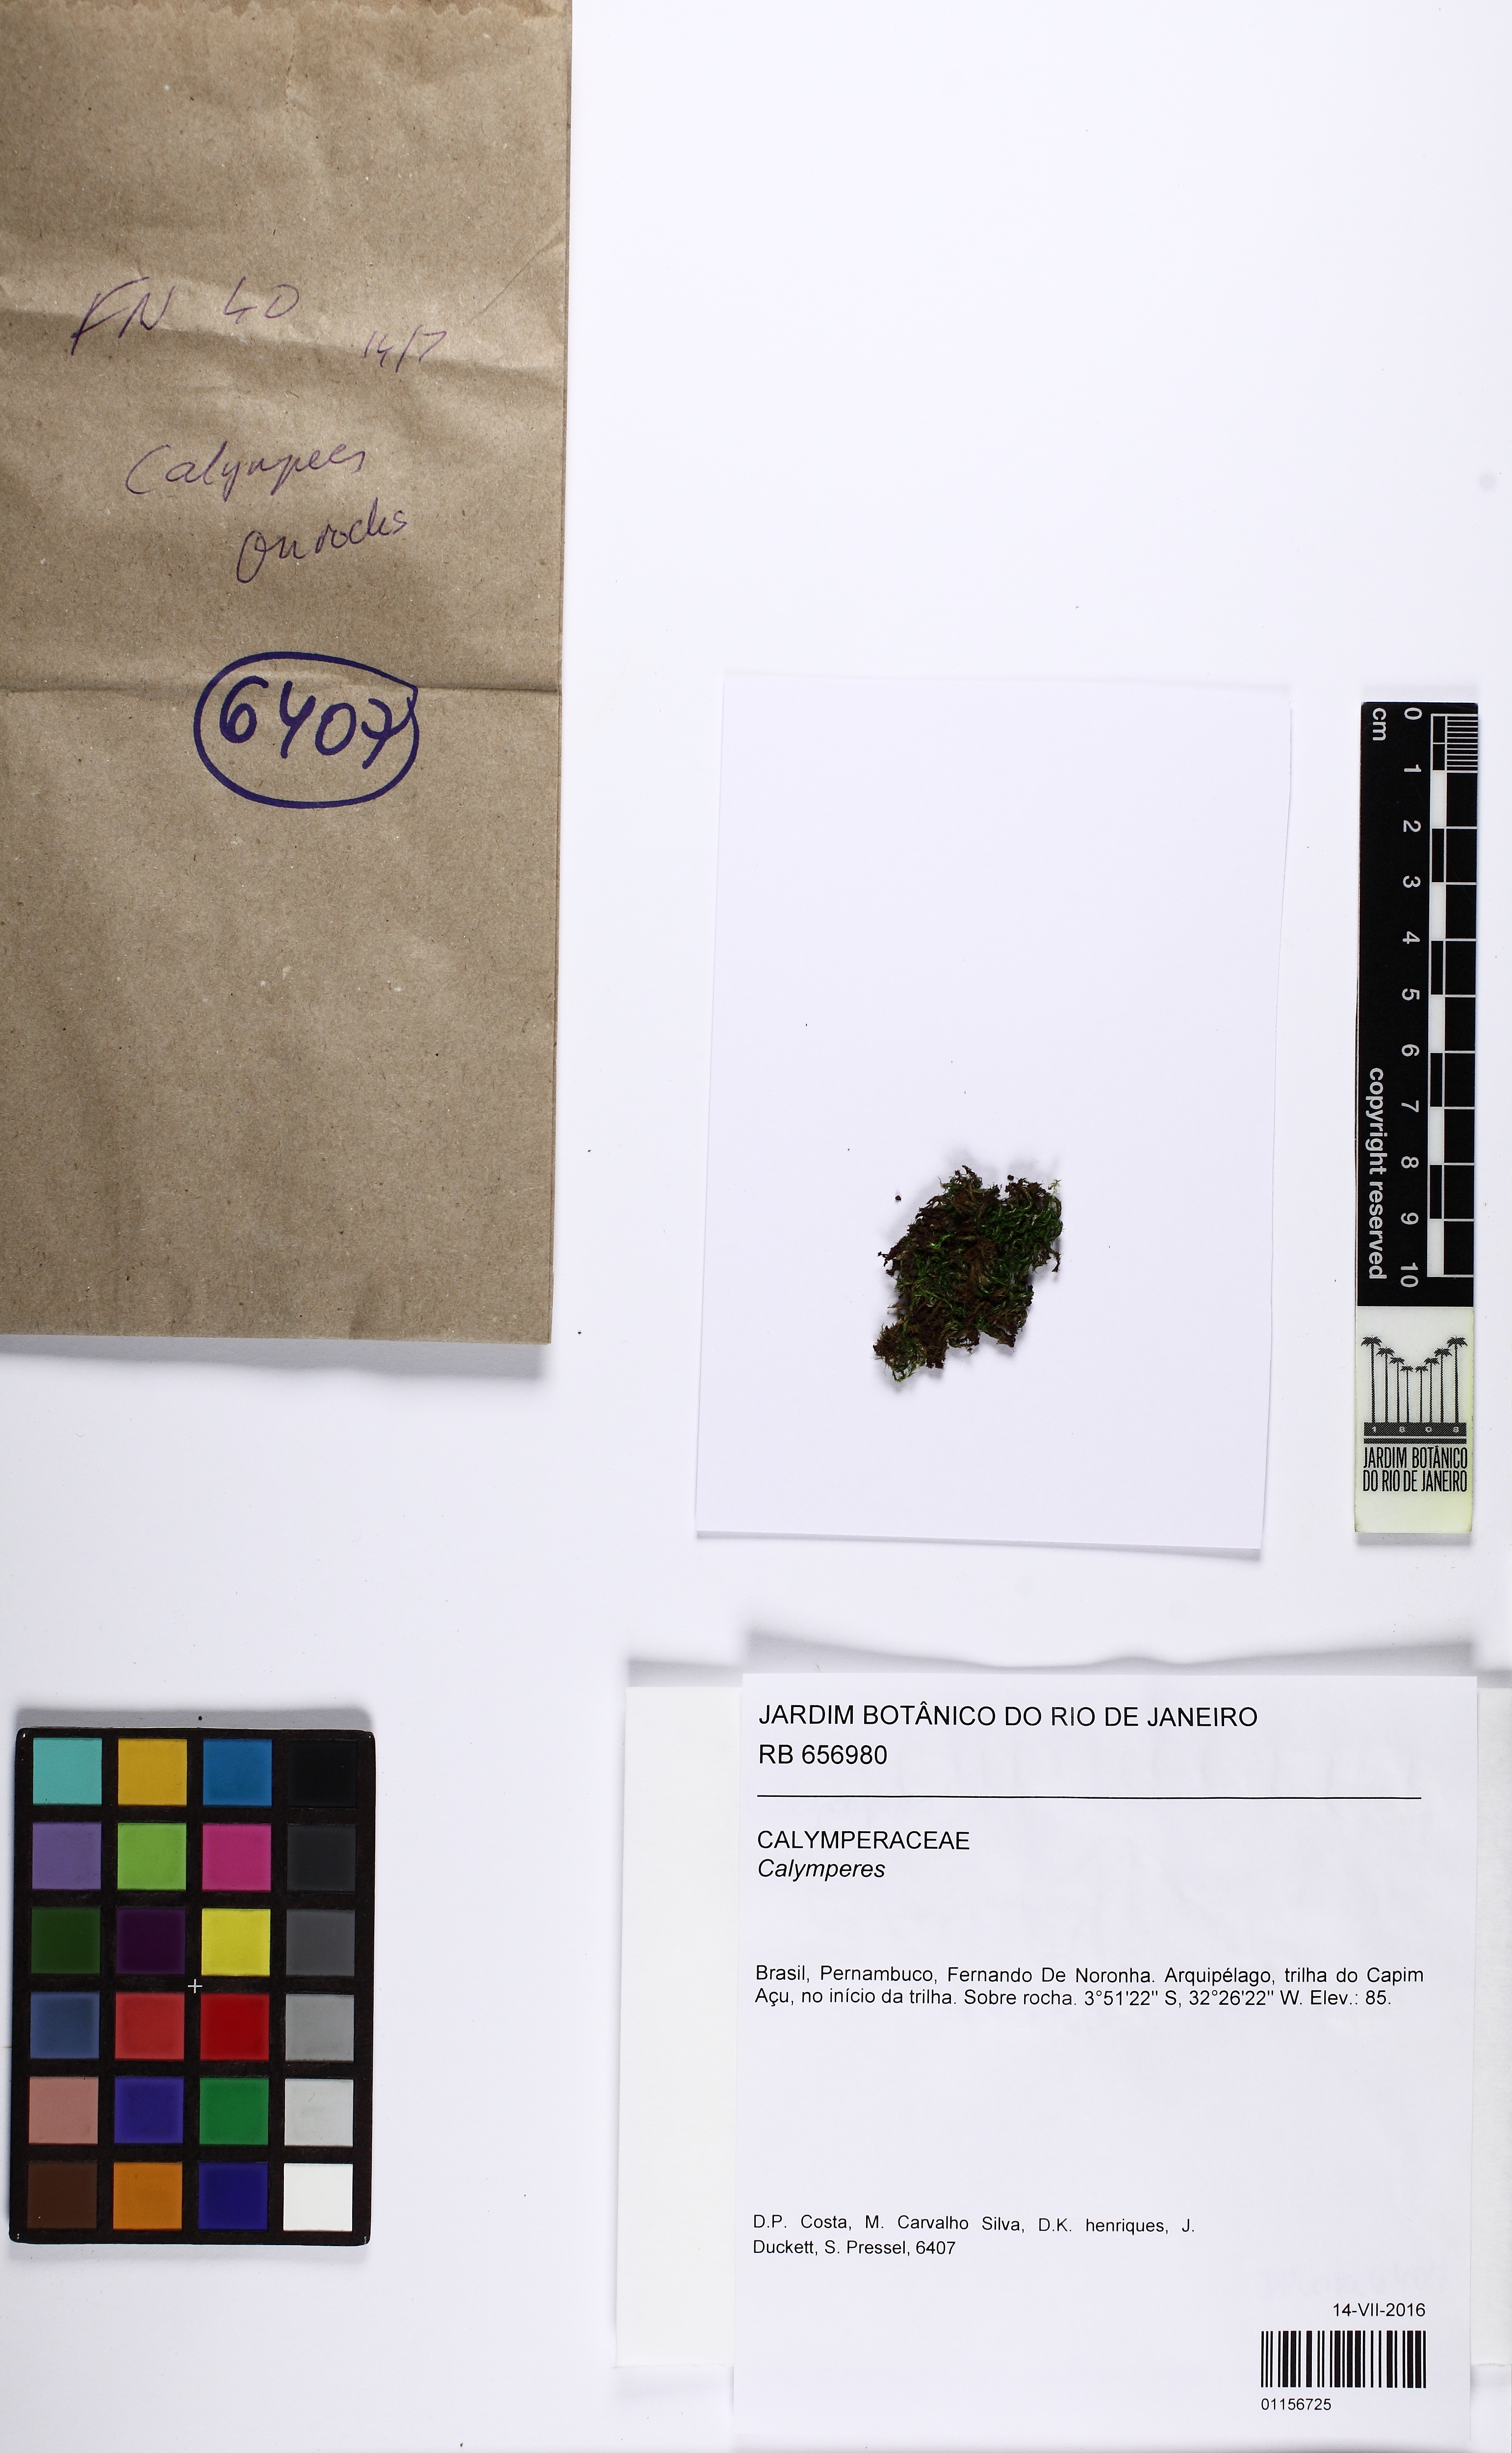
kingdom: Plantae
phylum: Bryophyta
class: Bryopsida
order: Dicranales
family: Calymperaceae
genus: Calymperes
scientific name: Calymperes
